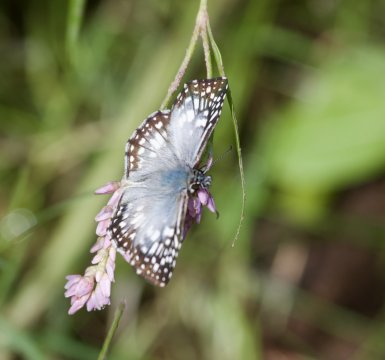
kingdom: Animalia
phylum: Arthropoda
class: Insecta
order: Lepidoptera
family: Hesperiidae
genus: Pyrgus
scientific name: Pyrgus oileus
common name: Tropical Checkered-Skipper
